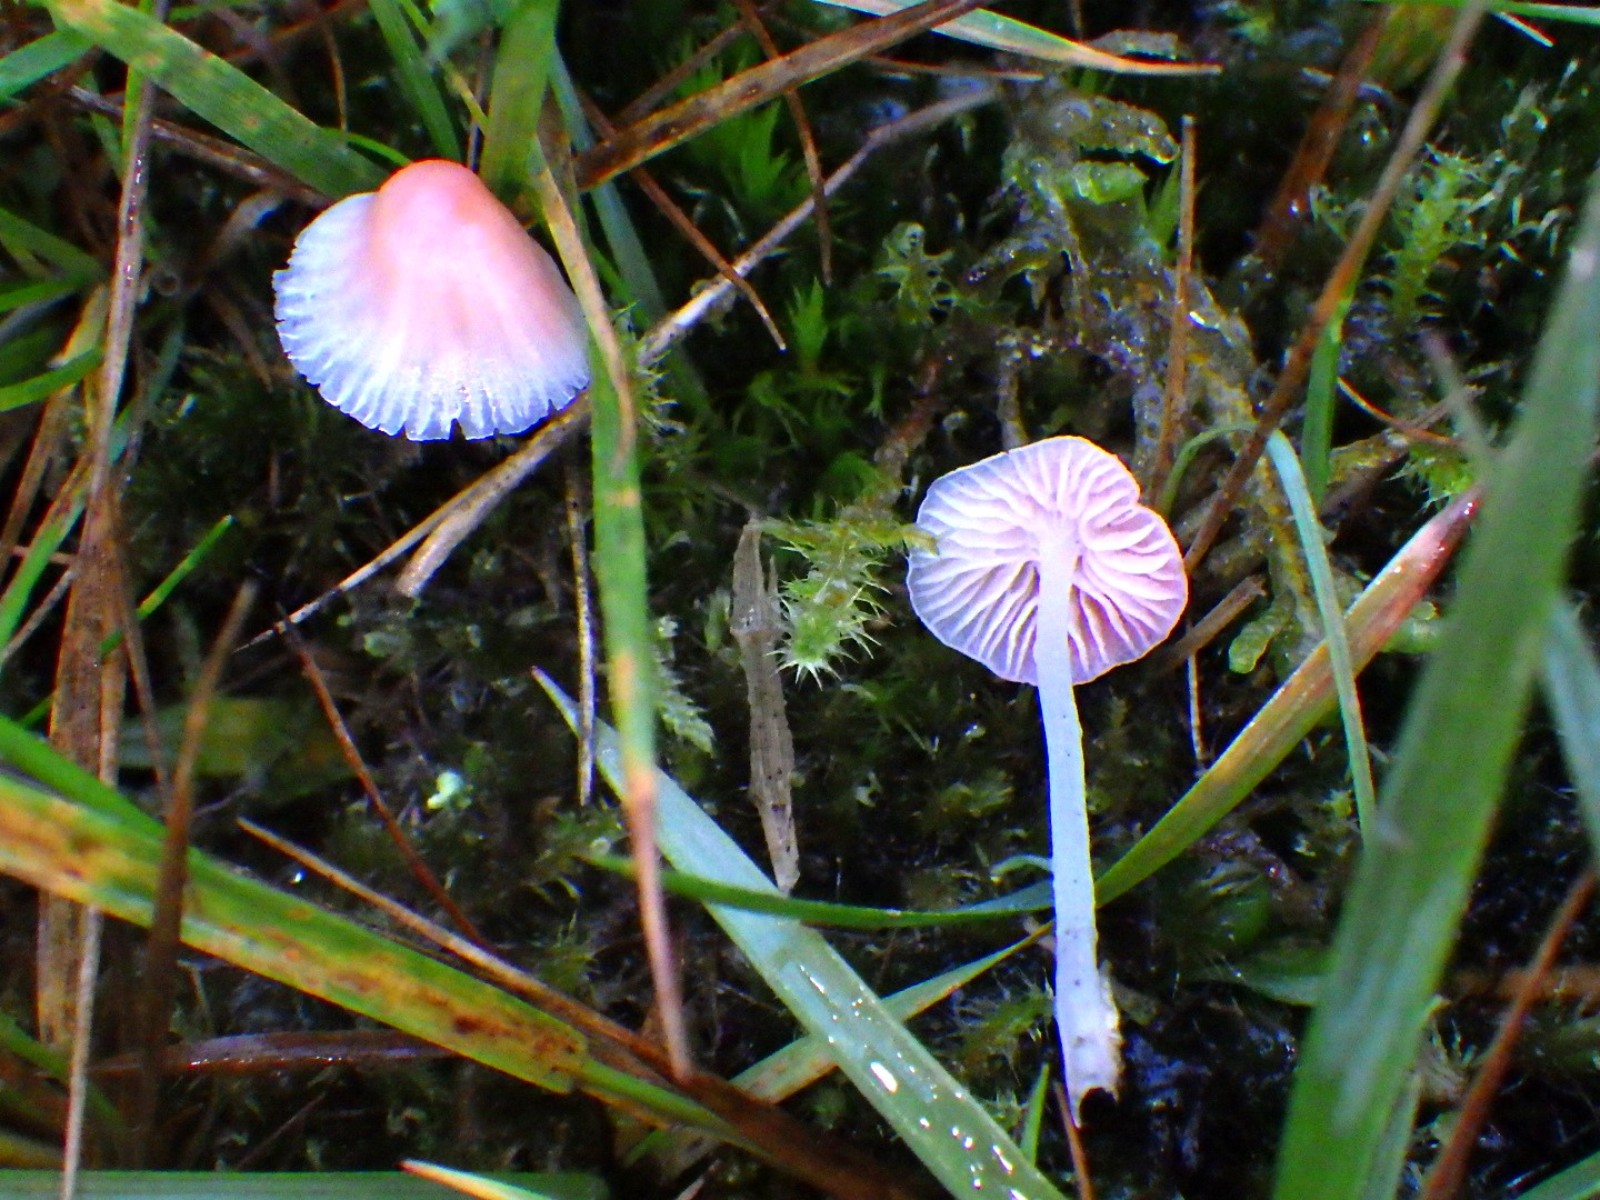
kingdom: Fungi
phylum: Basidiomycota
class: Agaricomycetes
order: Agaricales
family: Mycenaceae
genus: Atheniella
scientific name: Atheniella adonis
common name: rønnerød huesvamp
